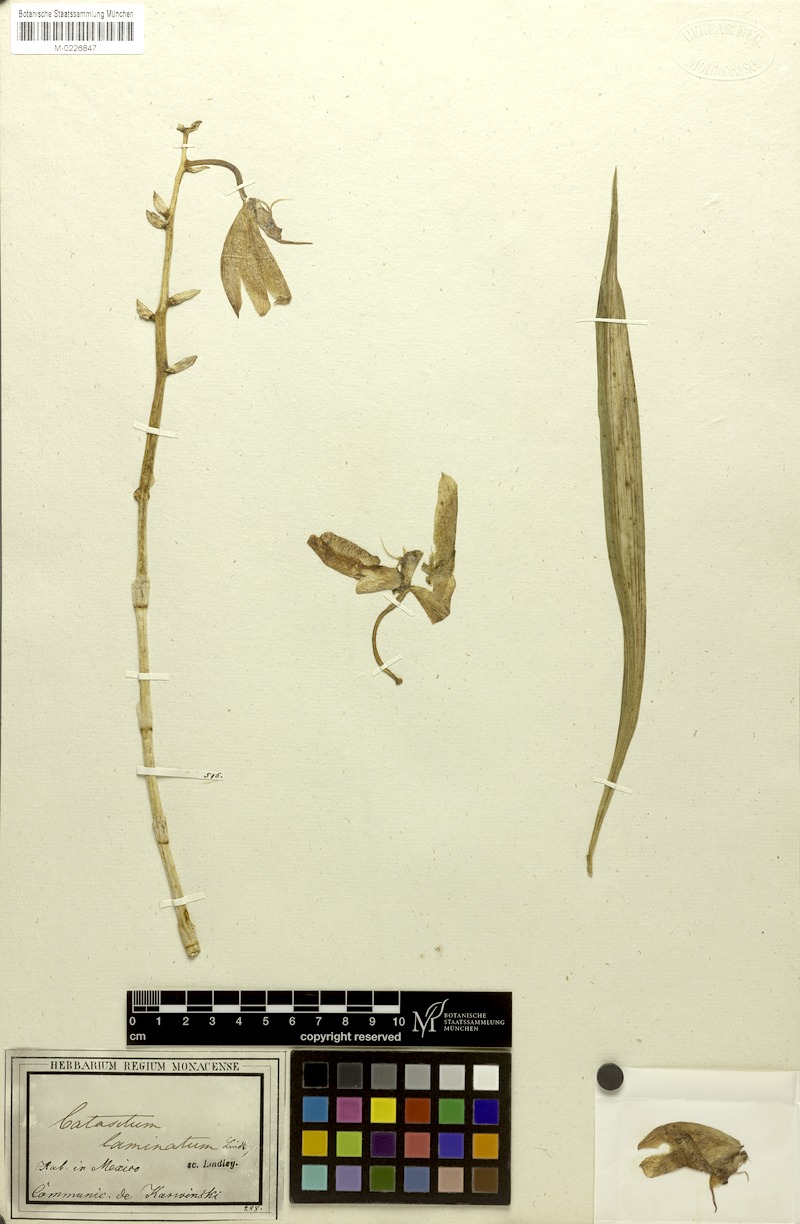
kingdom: Plantae
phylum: Tracheophyta
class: Liliopsida
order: Asparagales
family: Orchidaceae
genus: Catasetum
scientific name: Catasetum laminatum
